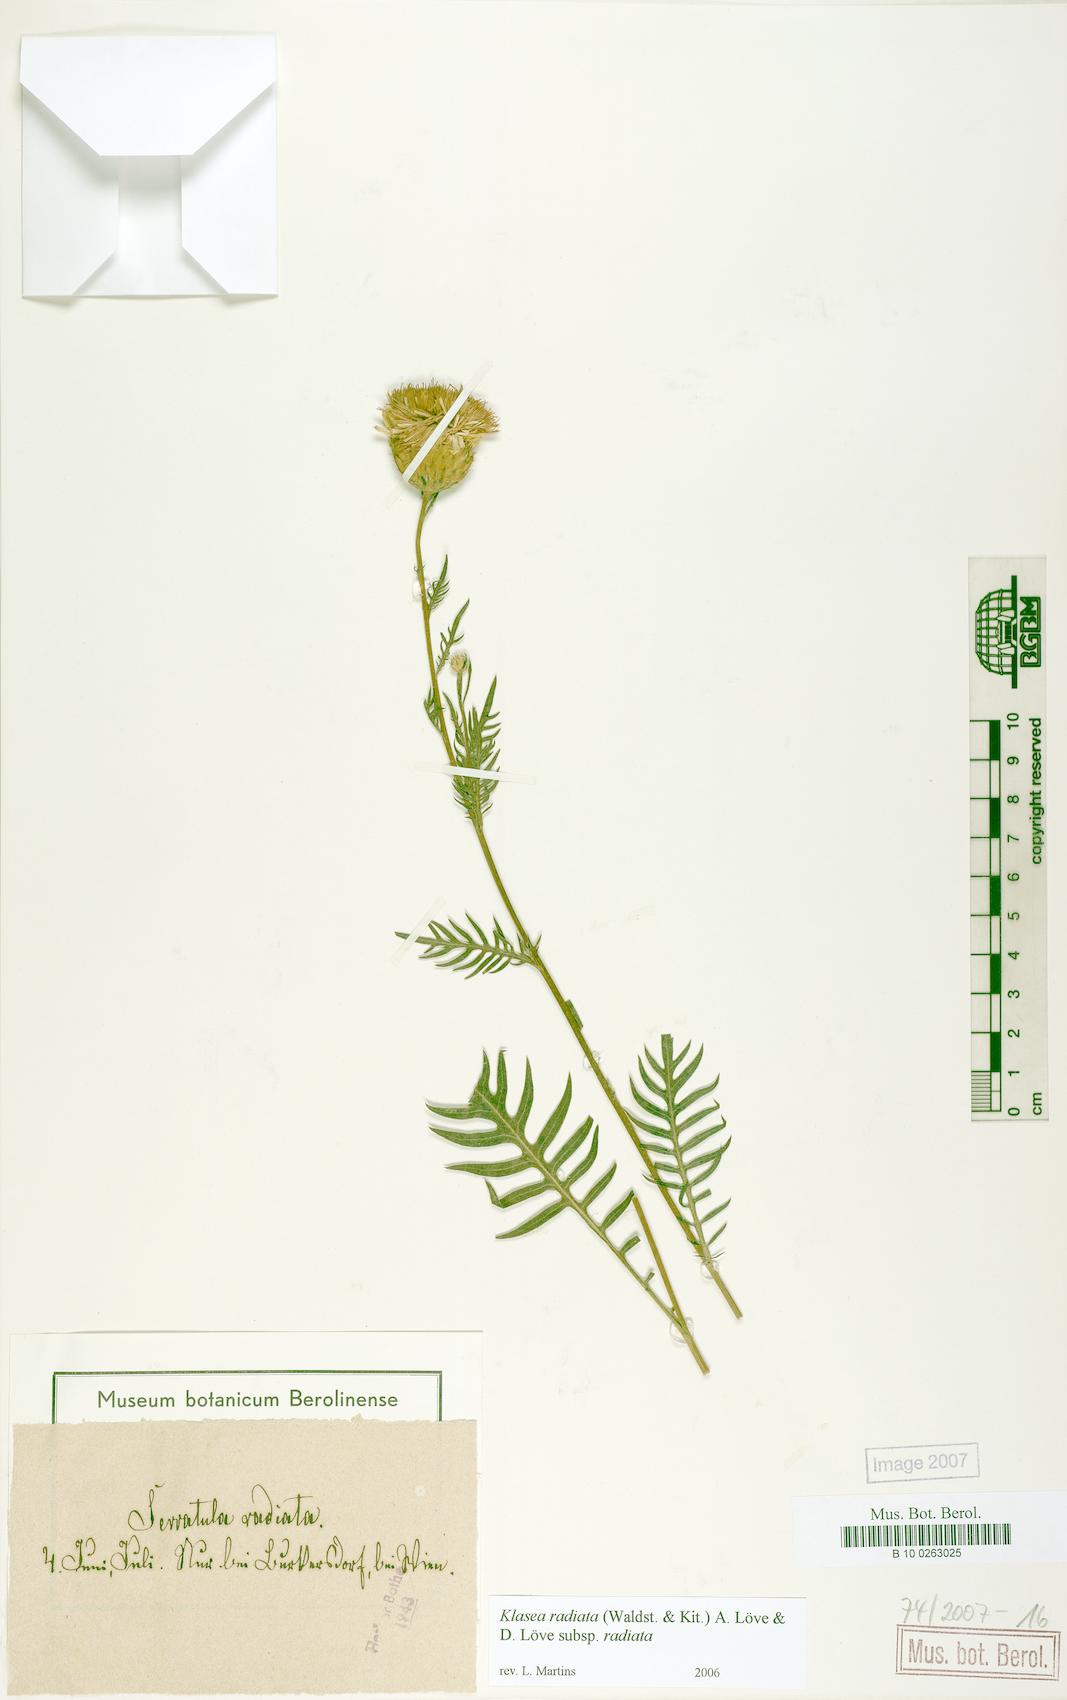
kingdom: Plantae
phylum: Tracheophyta
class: Magnoliopsida
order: Asterales
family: Asteraceae
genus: Klasea
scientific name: Klasea radiata
